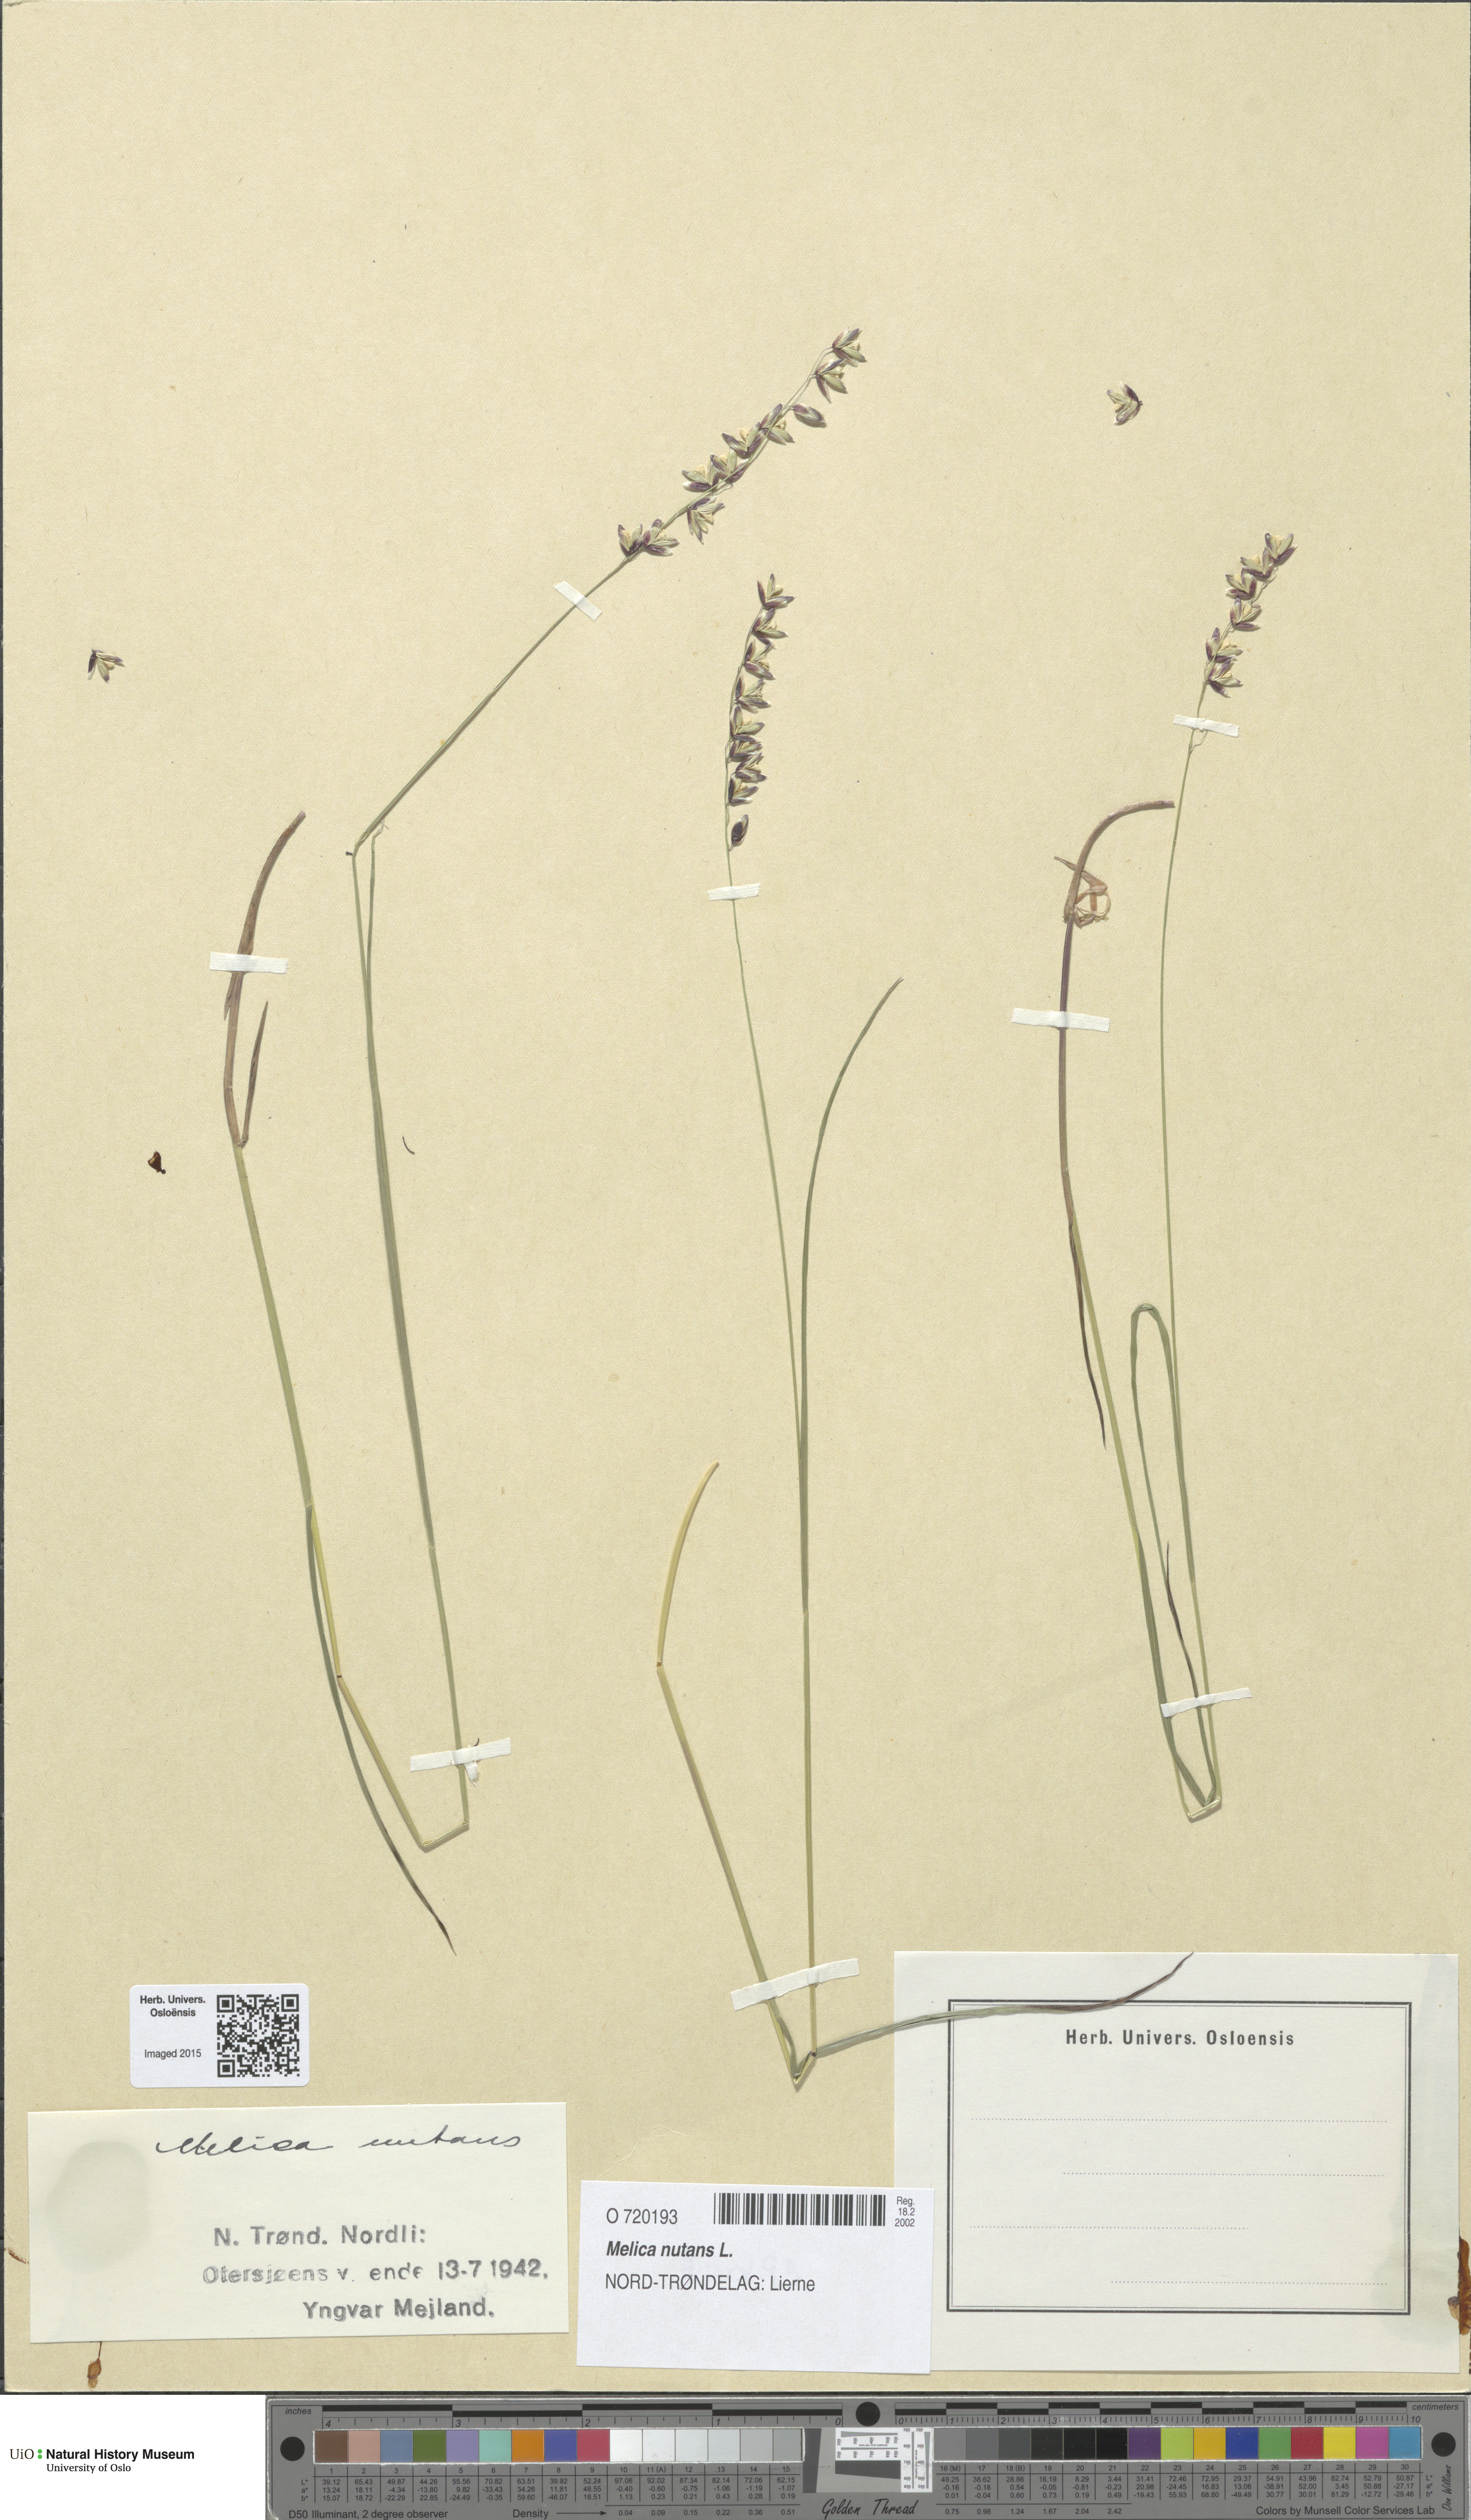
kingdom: Plantae
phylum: Tracheophyta
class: Liliopsida
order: Poales
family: Poaceae
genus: Melica
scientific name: Melica nutans
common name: Mountain melick
